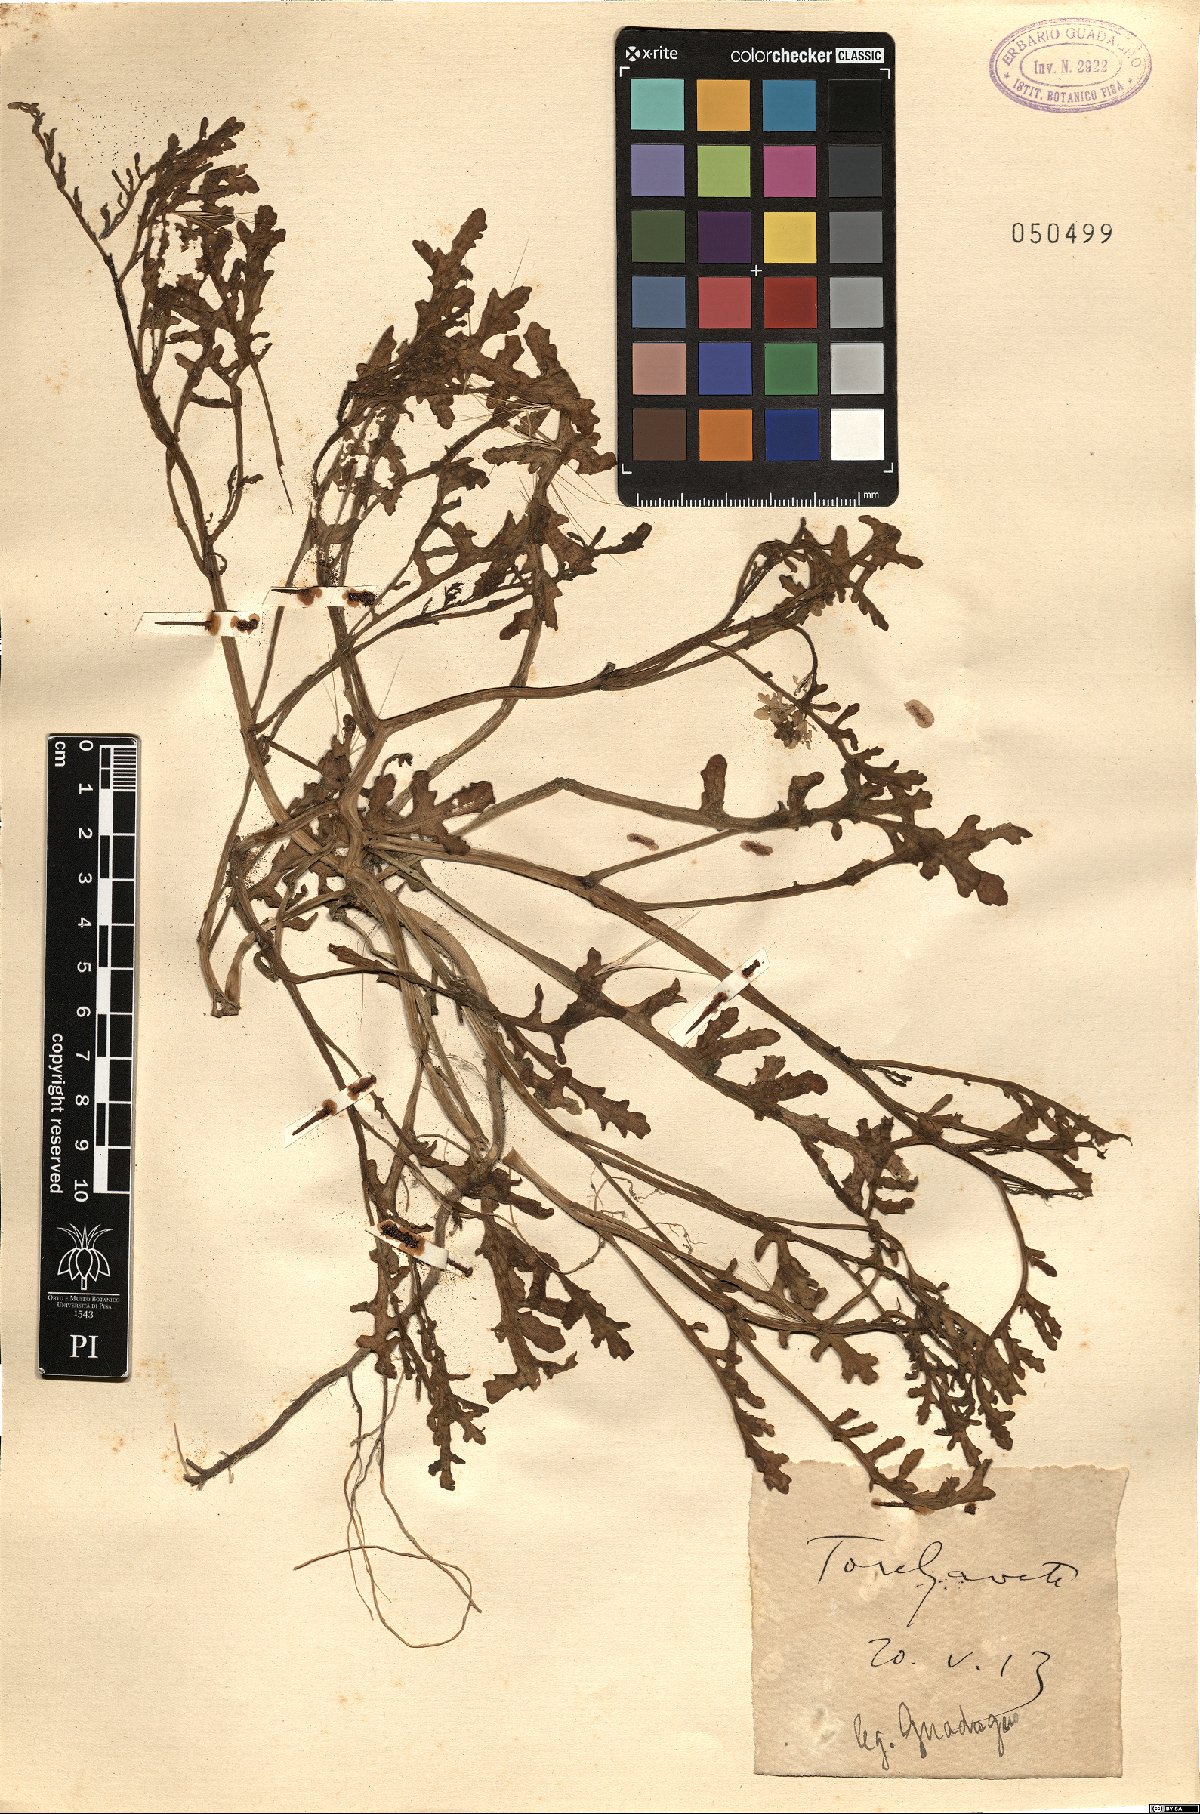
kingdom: Plantae
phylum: Tracheophyta
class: Magnoliopsida
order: Brassicales
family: Brassicaceae
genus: Cakile
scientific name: Cakile
